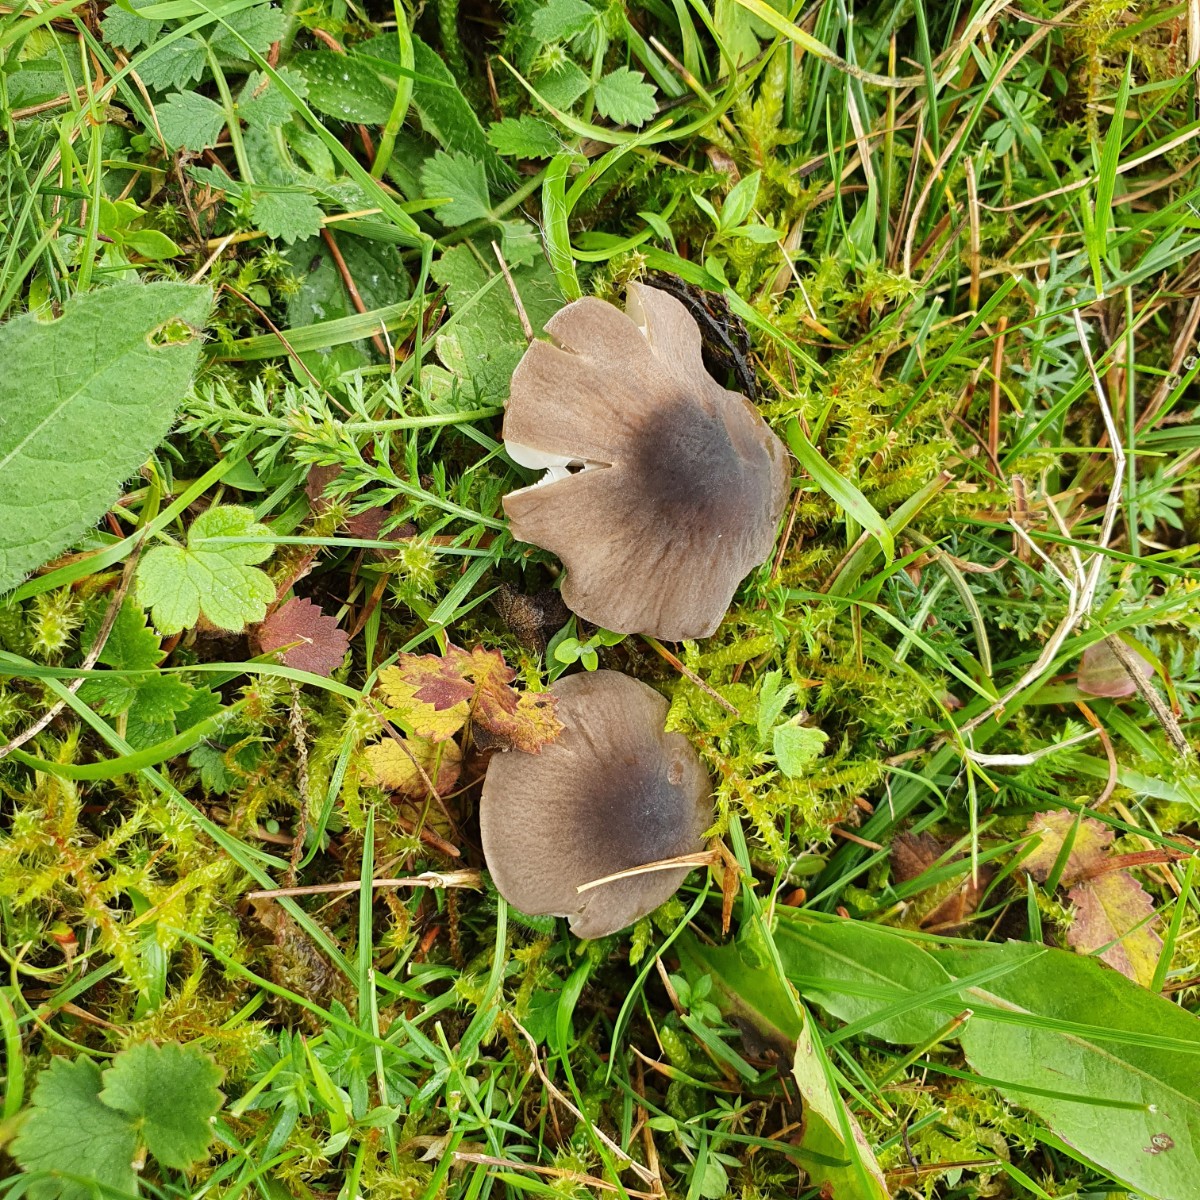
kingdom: Fungi
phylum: Basidiomycota
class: Agaricomycetes
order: Agaricales
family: Tricholomataceae
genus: Dermoloma
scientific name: Dermoloma cuneifolium
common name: eng-nonnehat
